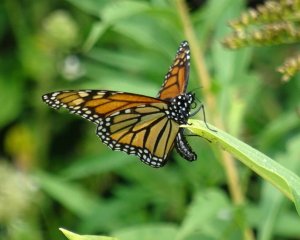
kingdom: Animalia
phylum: Arthropoda
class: Insecta
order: Lepidoptera
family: Nymphalidae
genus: Danaus
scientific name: Danaus plexippus
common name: Monarch
